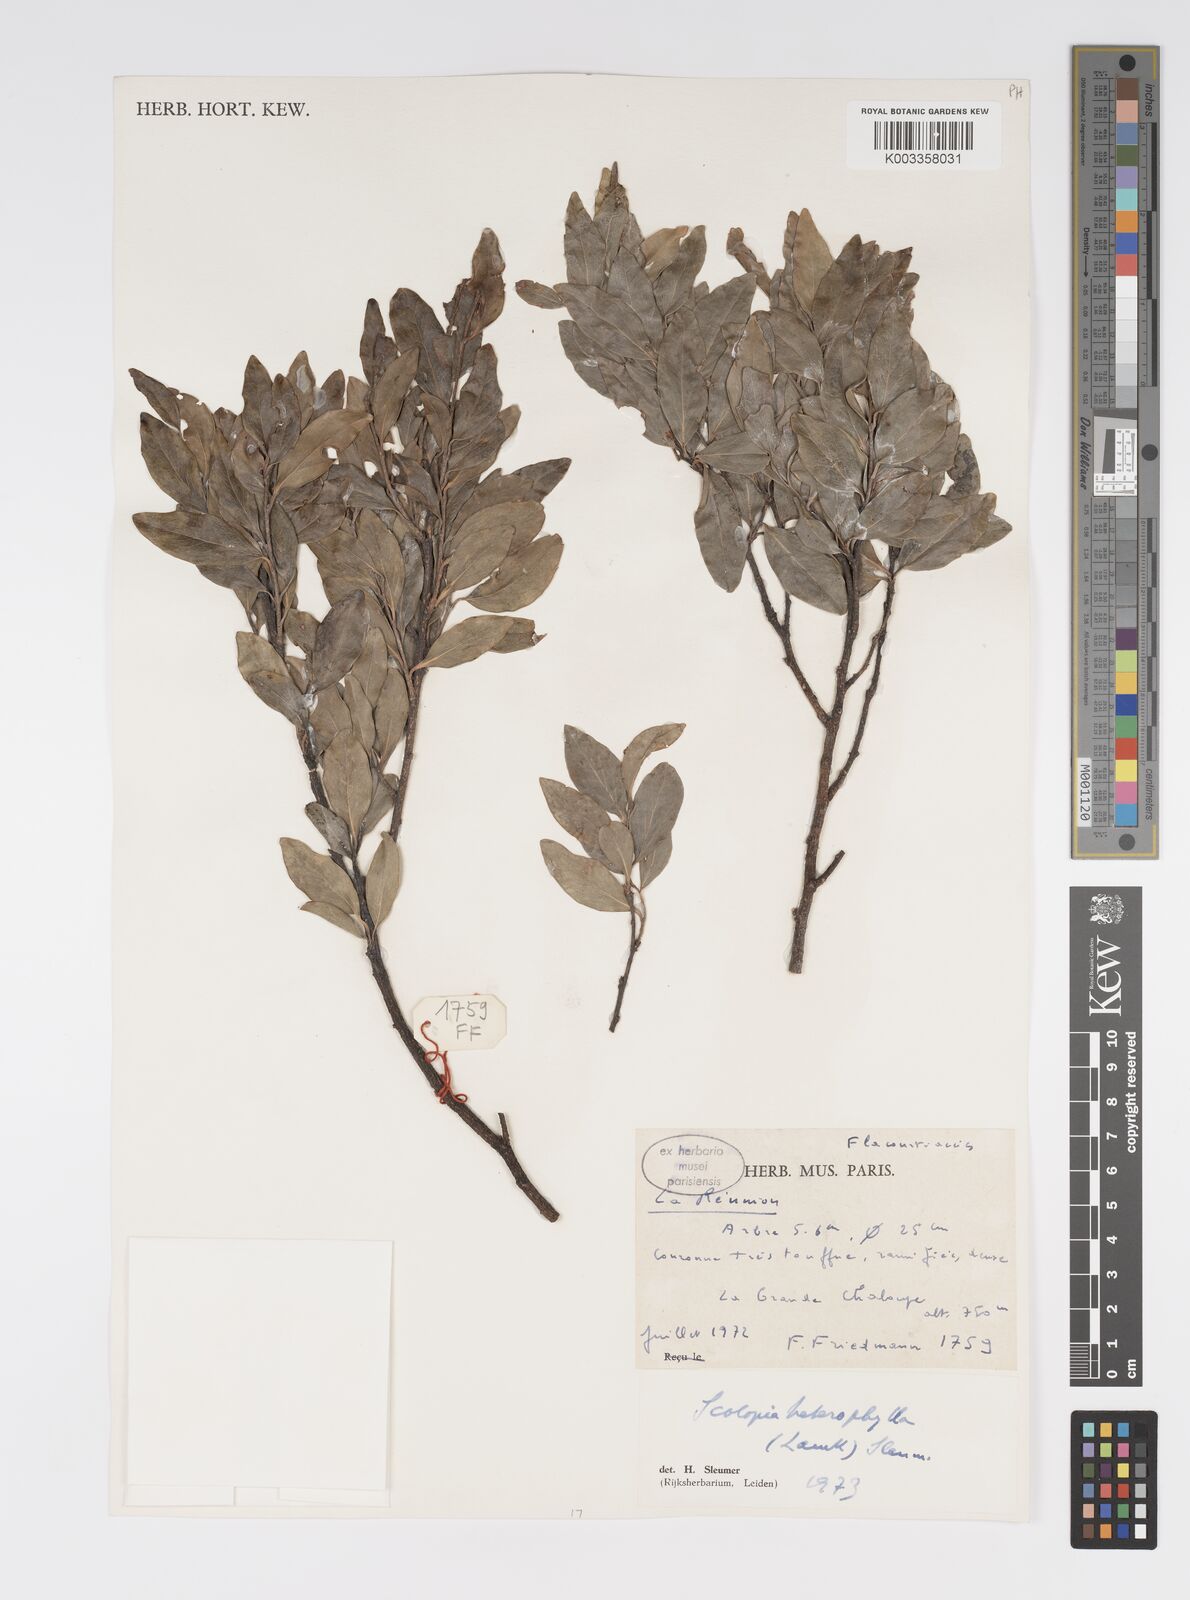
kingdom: Plantae
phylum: Tracheophyta
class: Magnoliopsida
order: Malpighiales
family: Salicaceae
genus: Scolopia
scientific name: Scolopia heterophylla
